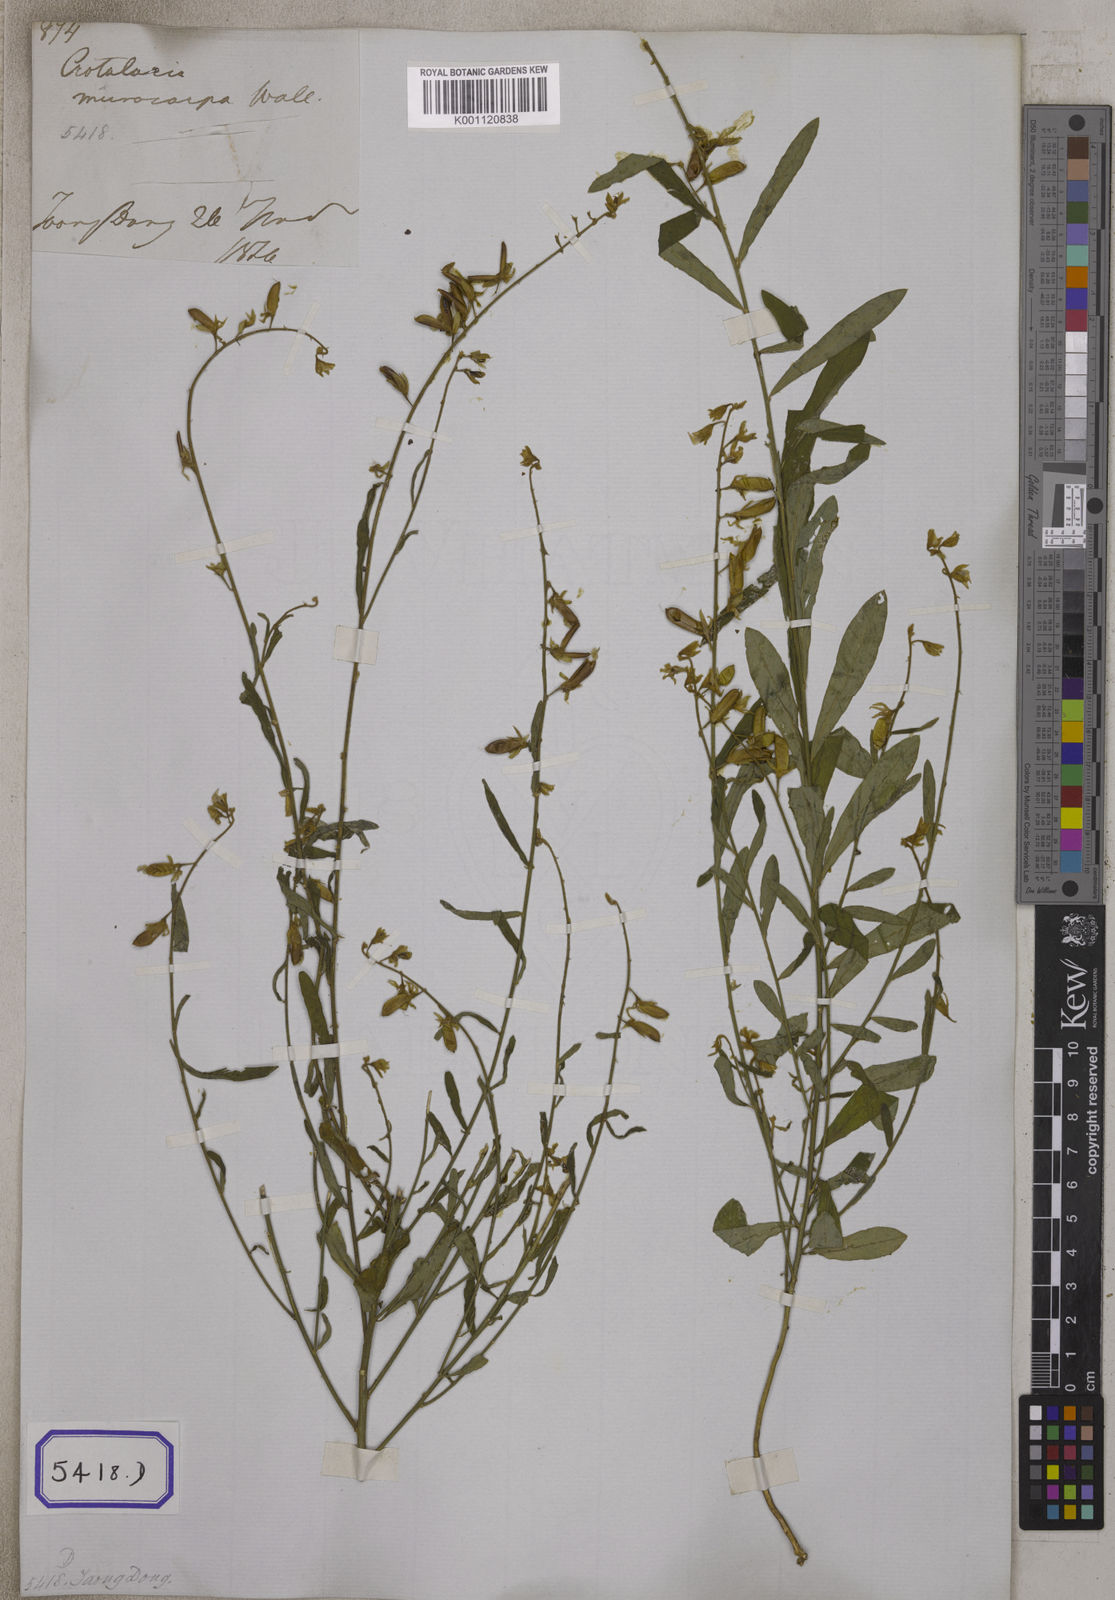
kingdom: Plantae
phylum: Tracheophyta
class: Magnoliopsida
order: Fabales
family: Fabaceae
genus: Crotalaria
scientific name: Crotalaria albida
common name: Taiwan crotalaria
